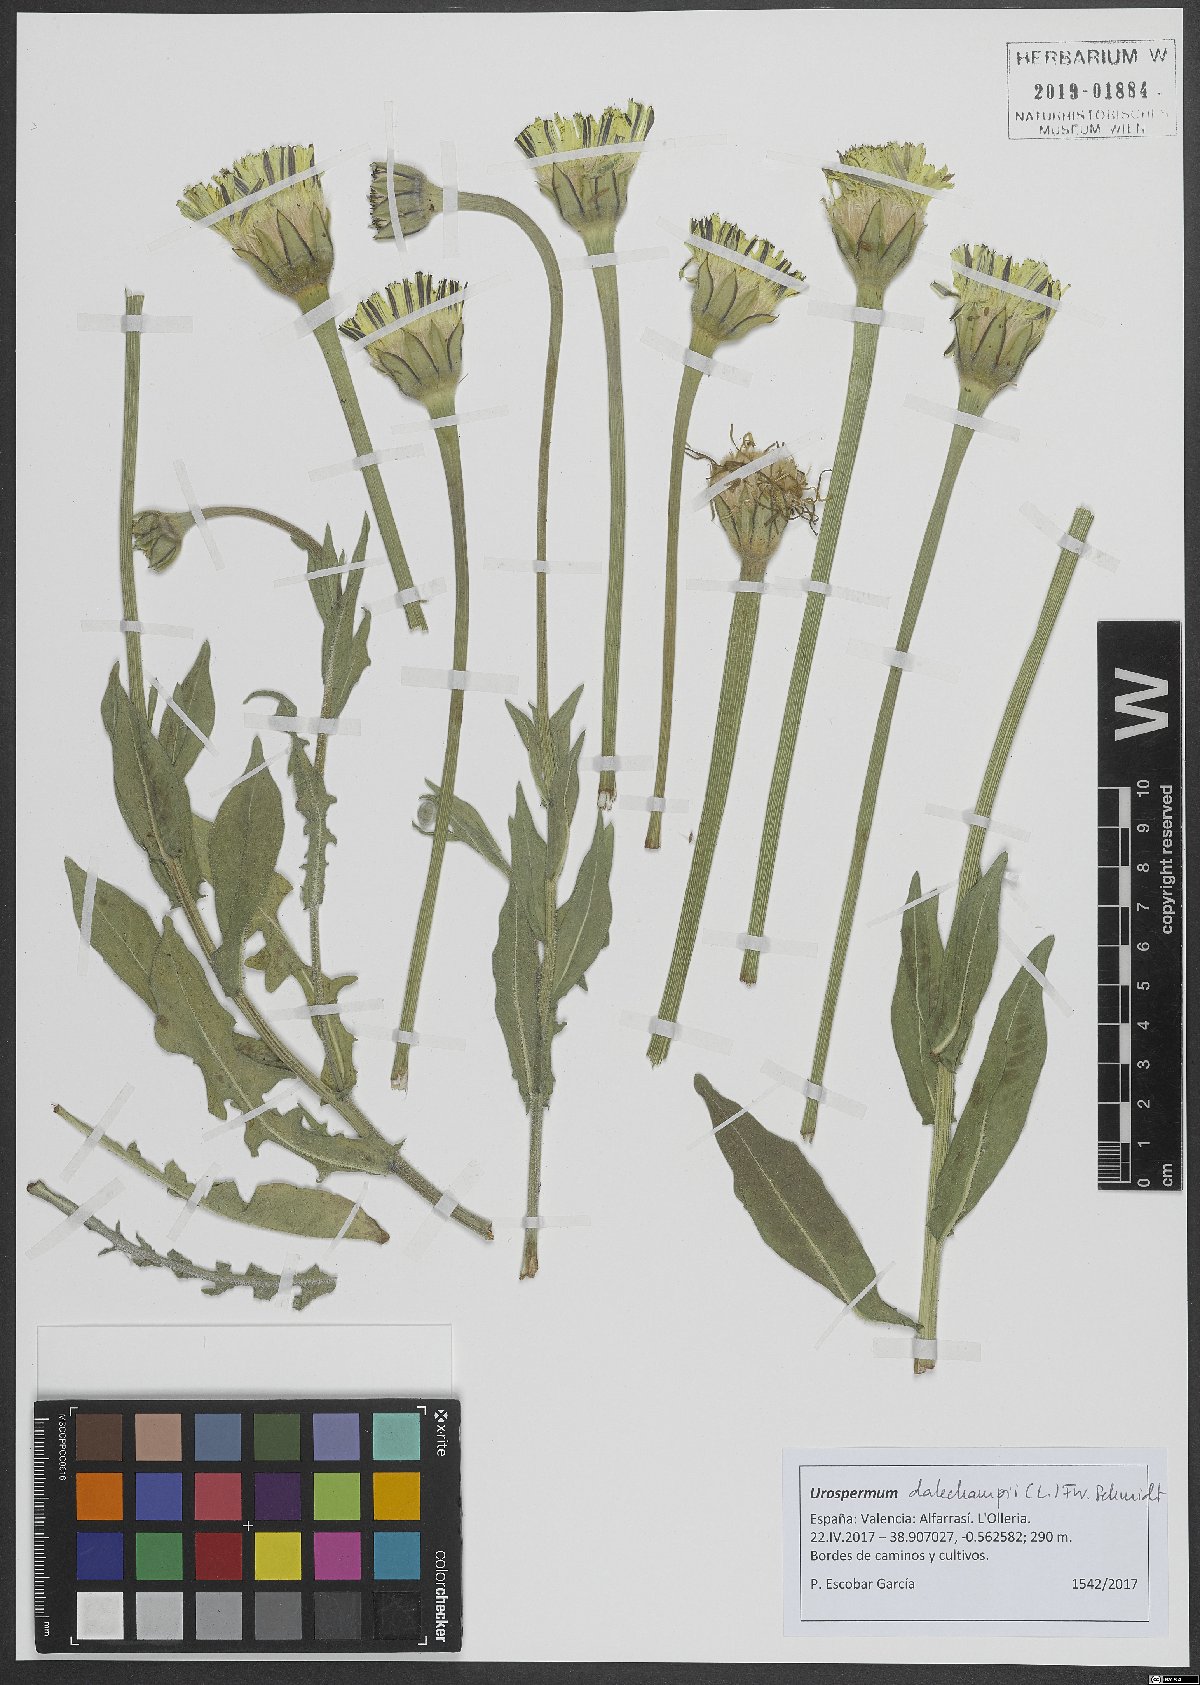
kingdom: Plantae
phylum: Tracheophyta
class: Magnoliopsida
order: Asterales
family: Asteraceae
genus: Urospermum
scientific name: Urospermum dalechampii
